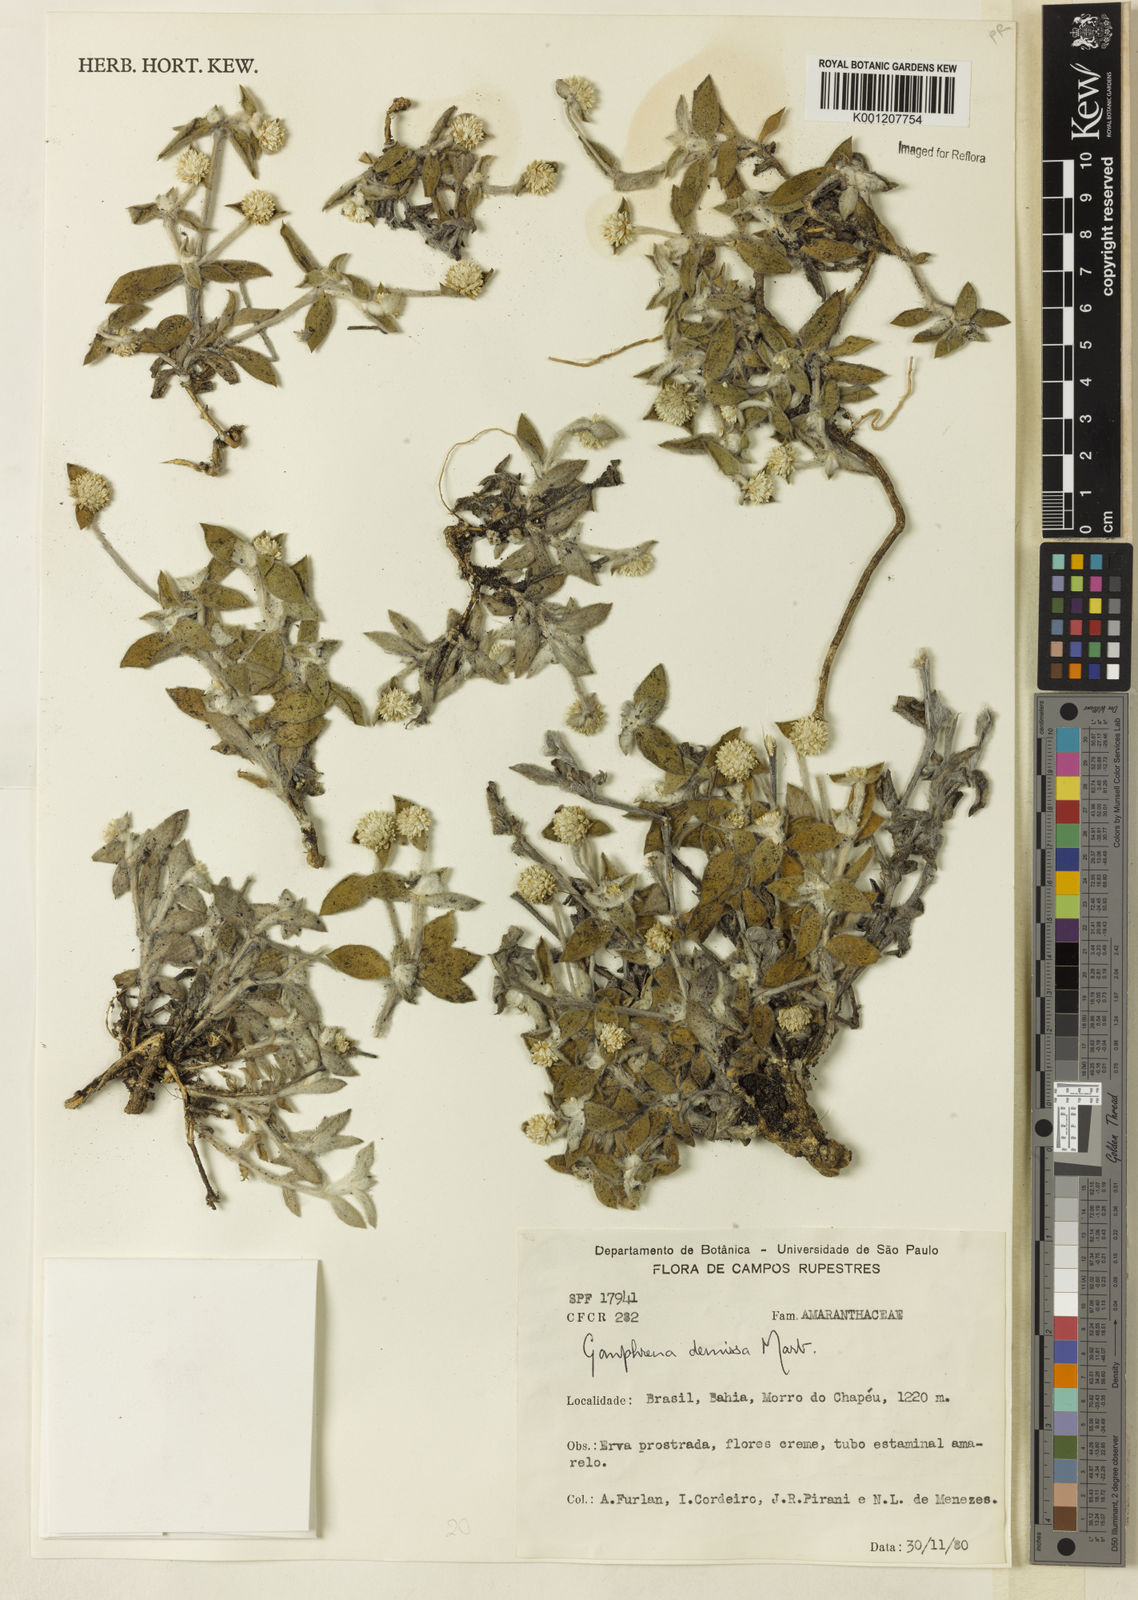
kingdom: Plantae
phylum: Tracheophyta
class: Magnoliopsida
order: Caryophyllales
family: Amaranthaceae
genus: Gomphrena
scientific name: Gomphrena demissa
